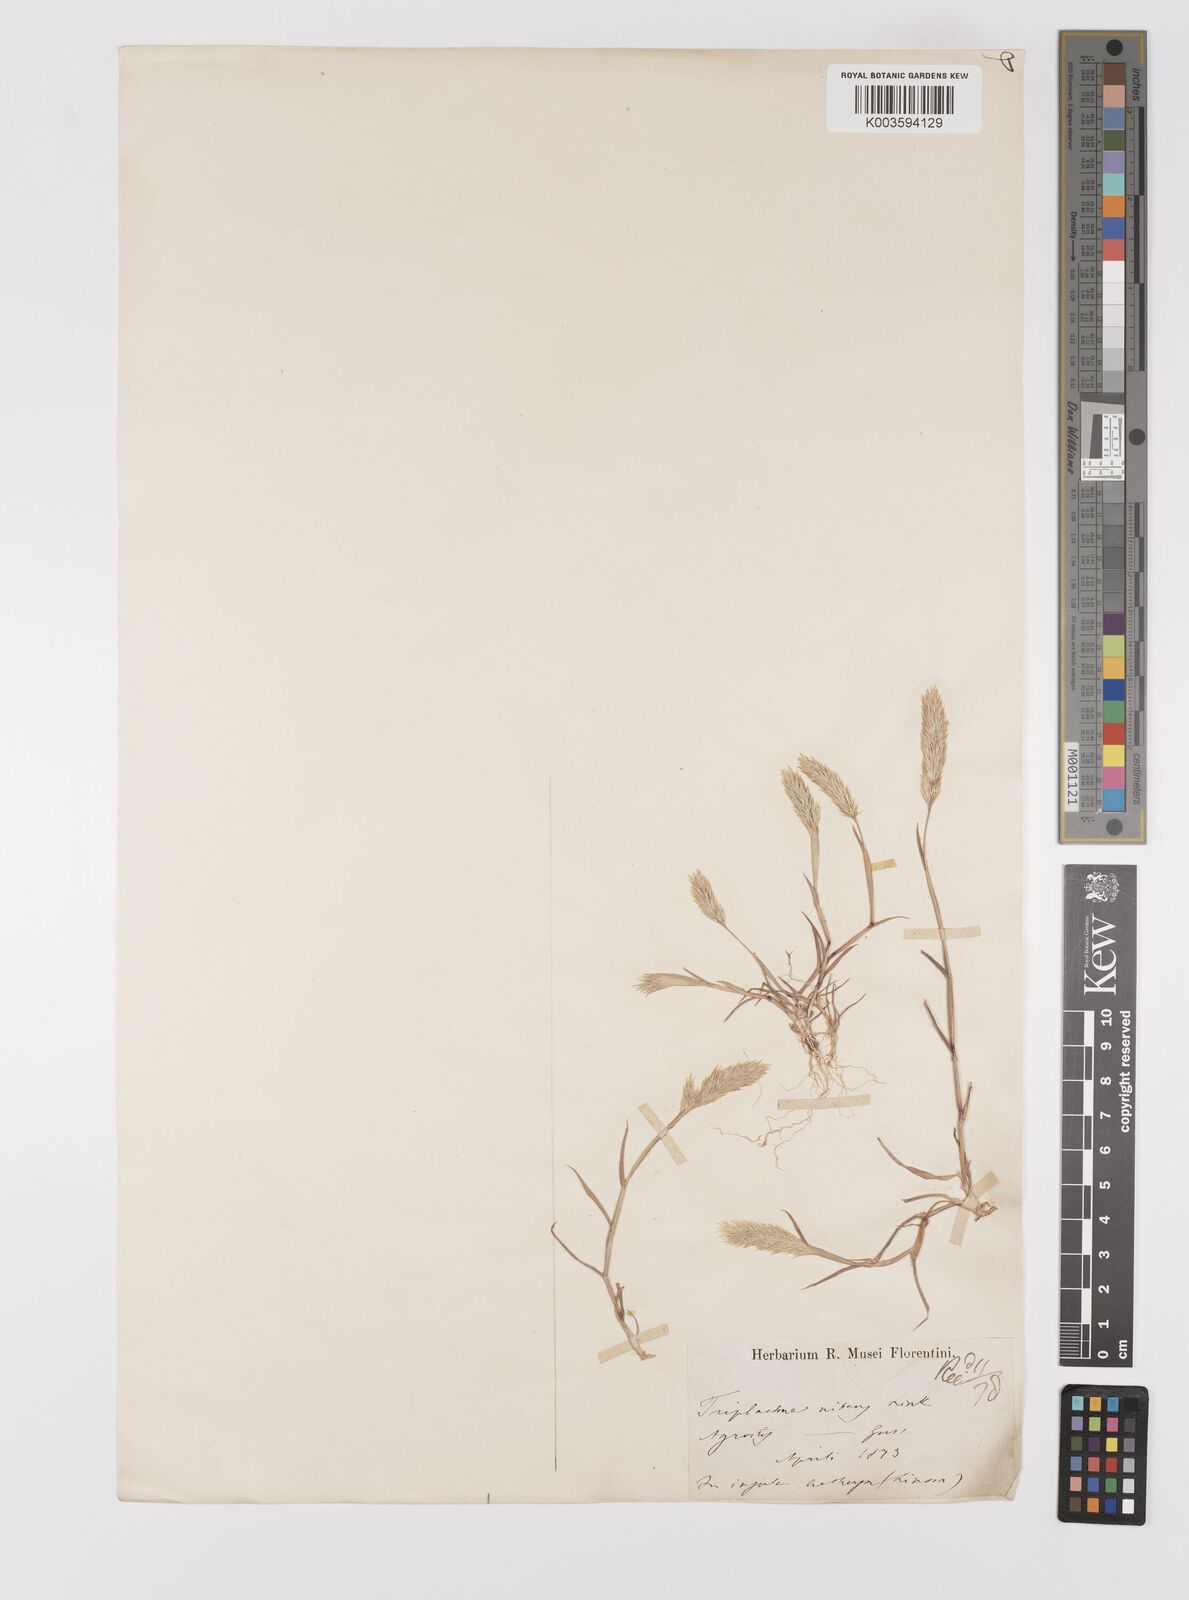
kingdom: Plantae
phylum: Tracheophyta
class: Liliopsida
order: Poales
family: Poaceae
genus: Triplachne
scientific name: Triplachne nitens
